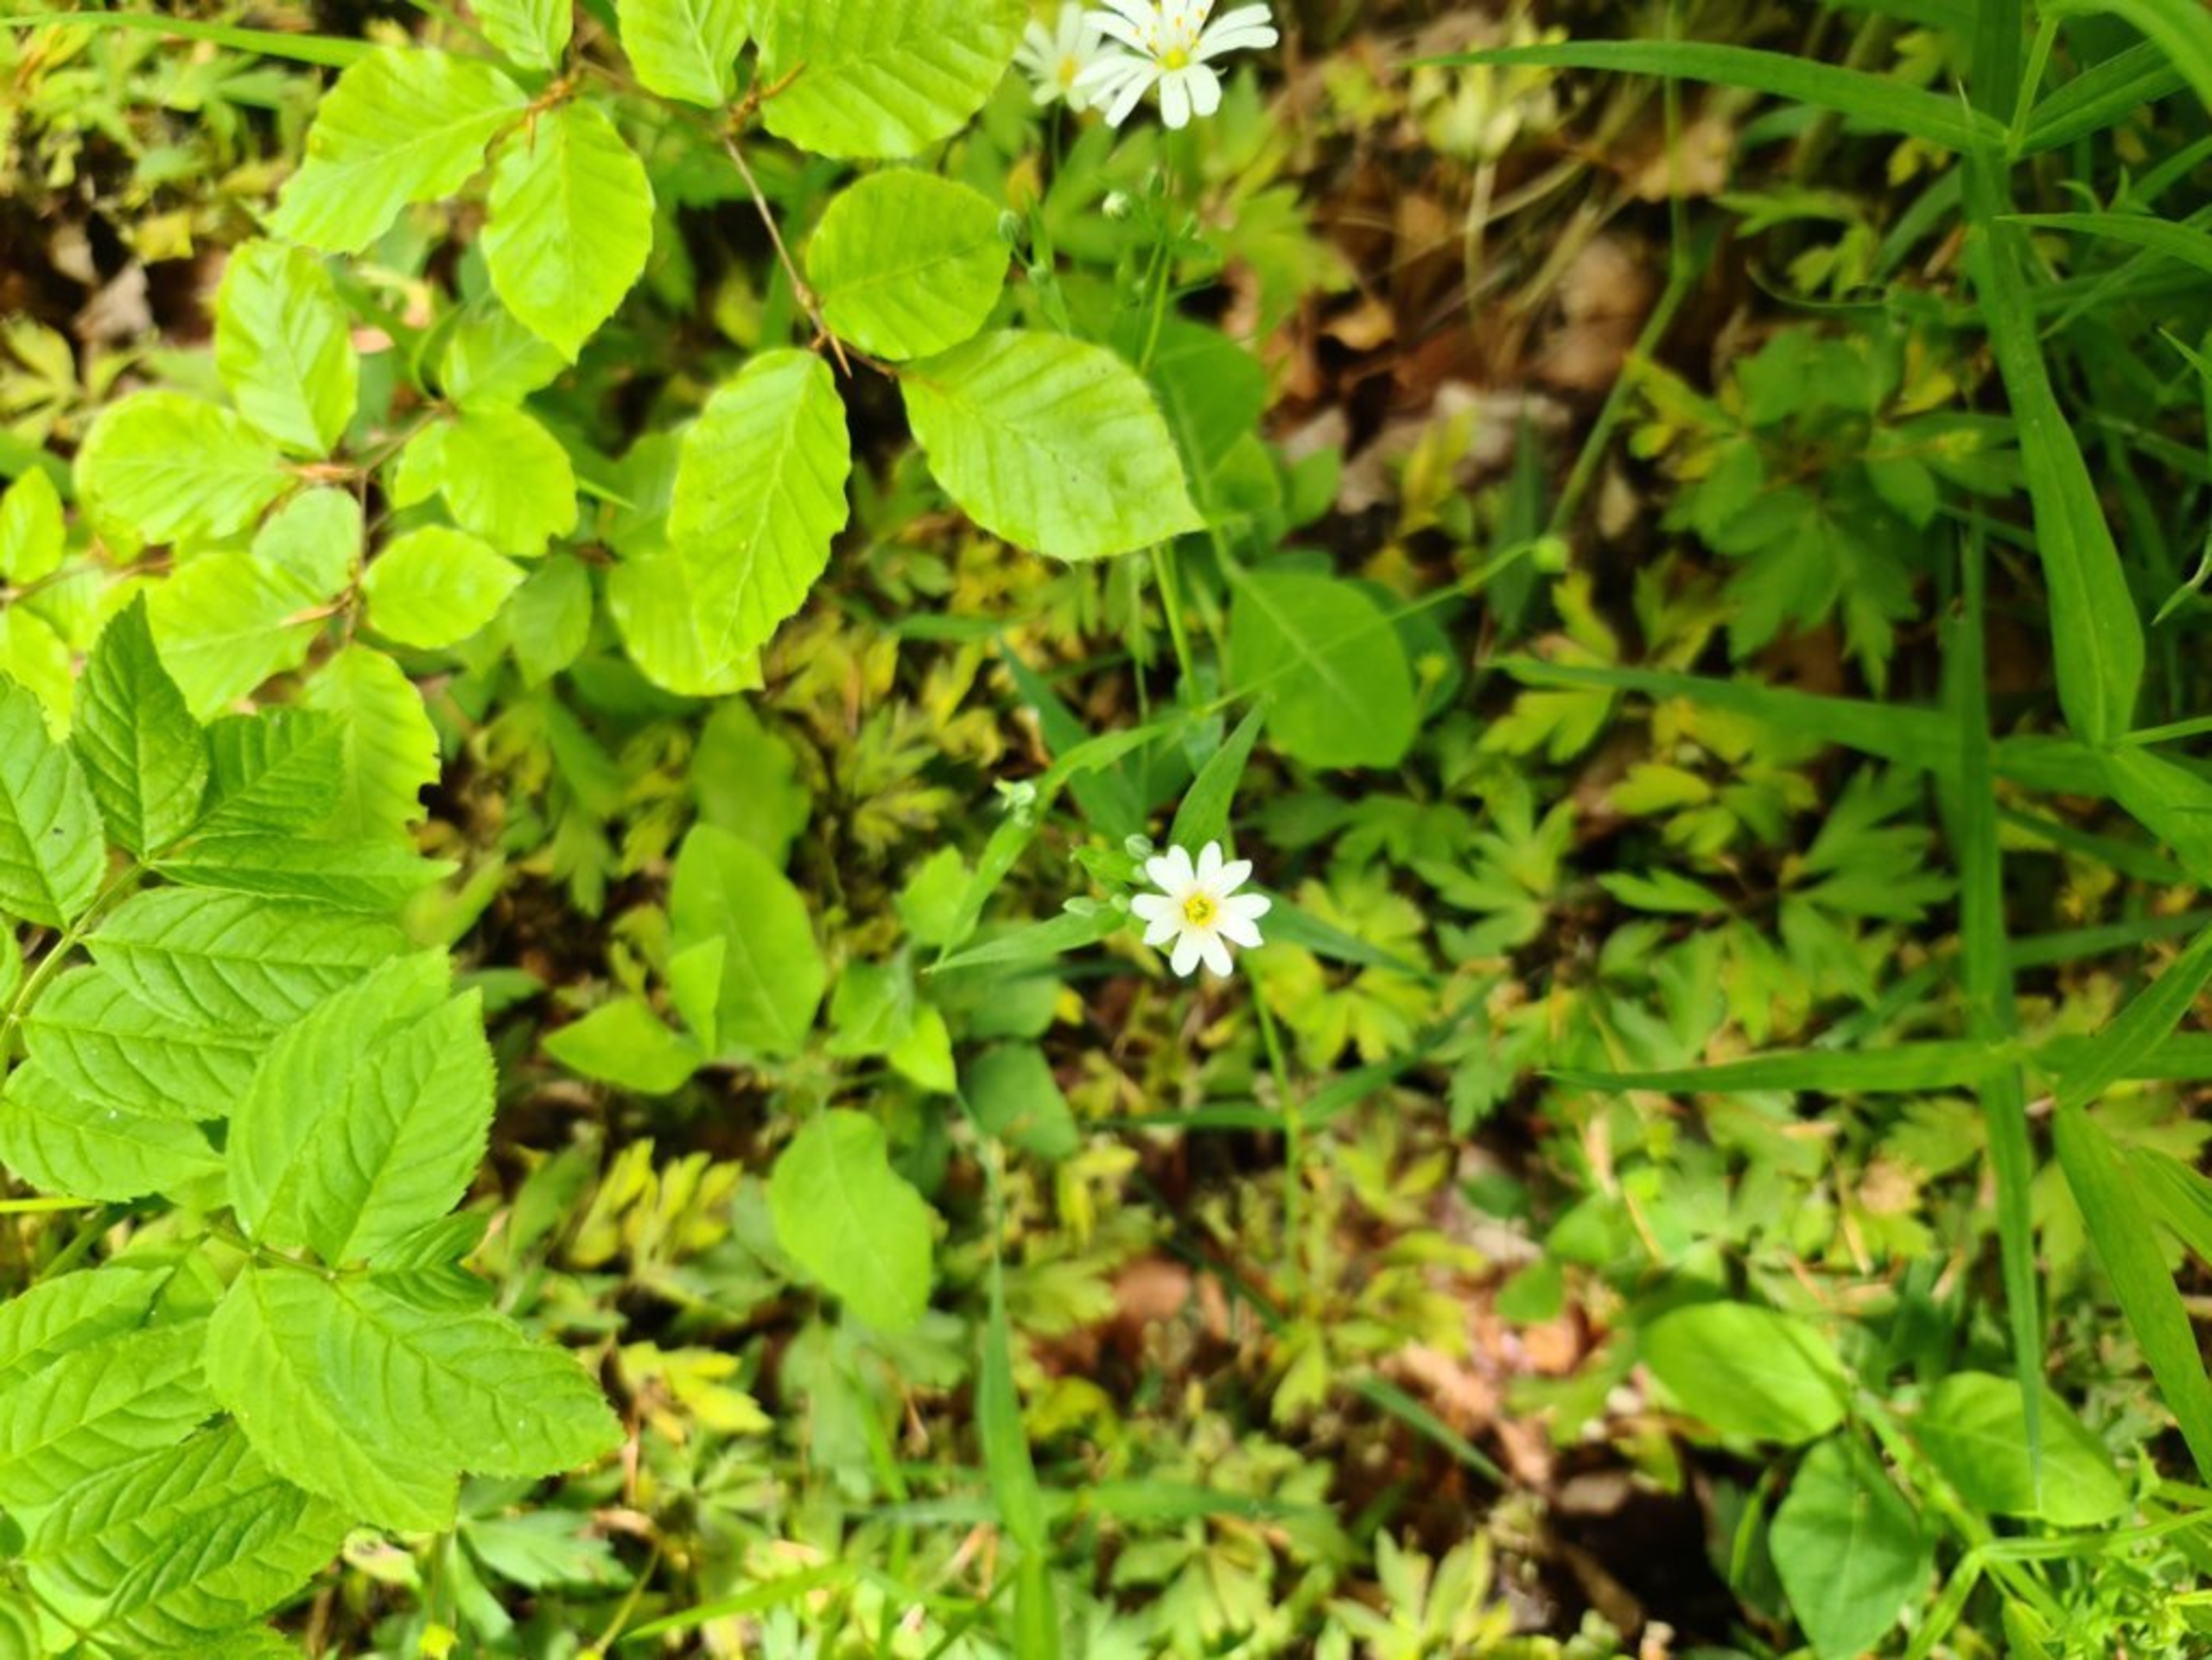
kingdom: Plantae
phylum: Tracheophyta
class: Magnoliopsida
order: Caryophyllales
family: Caryophyllaceae
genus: Rabelera
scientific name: Rabelera holostea
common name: Stor fladstjerne
